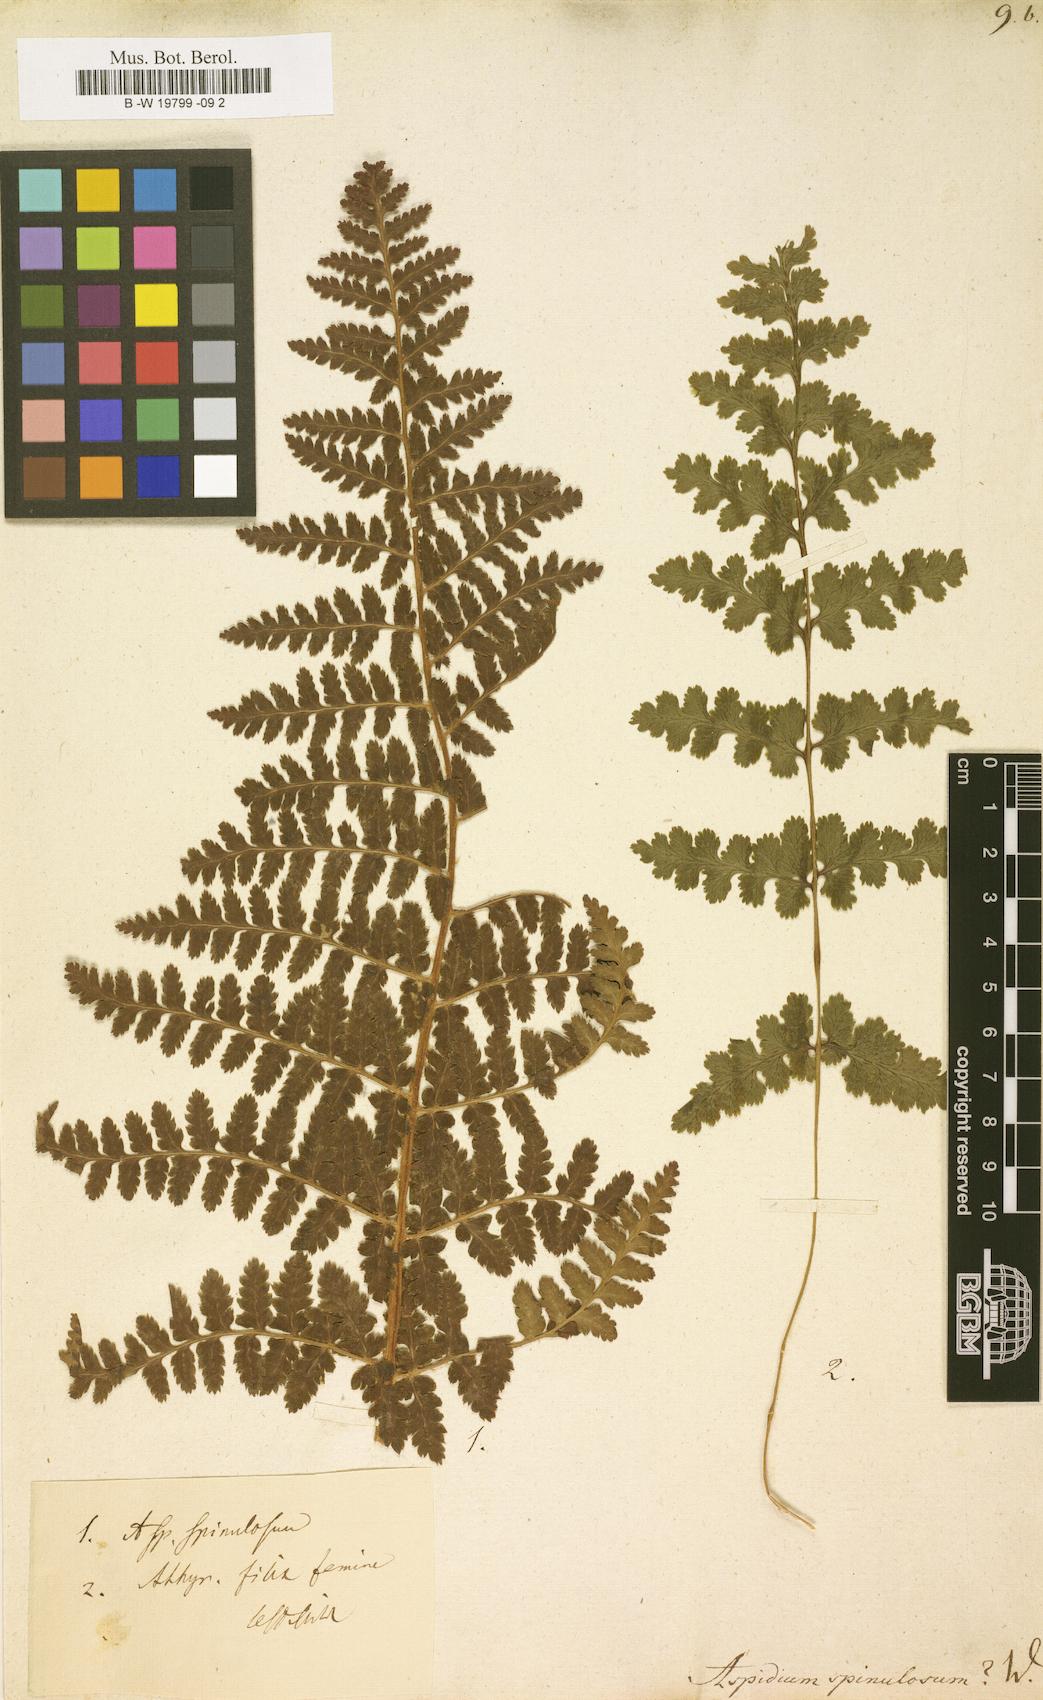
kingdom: Plantae
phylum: Tracheophyta
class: Polypodiopsida
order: Polypodiales
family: Dryopteridaceae
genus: Dryopteris
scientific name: Dryopteris
